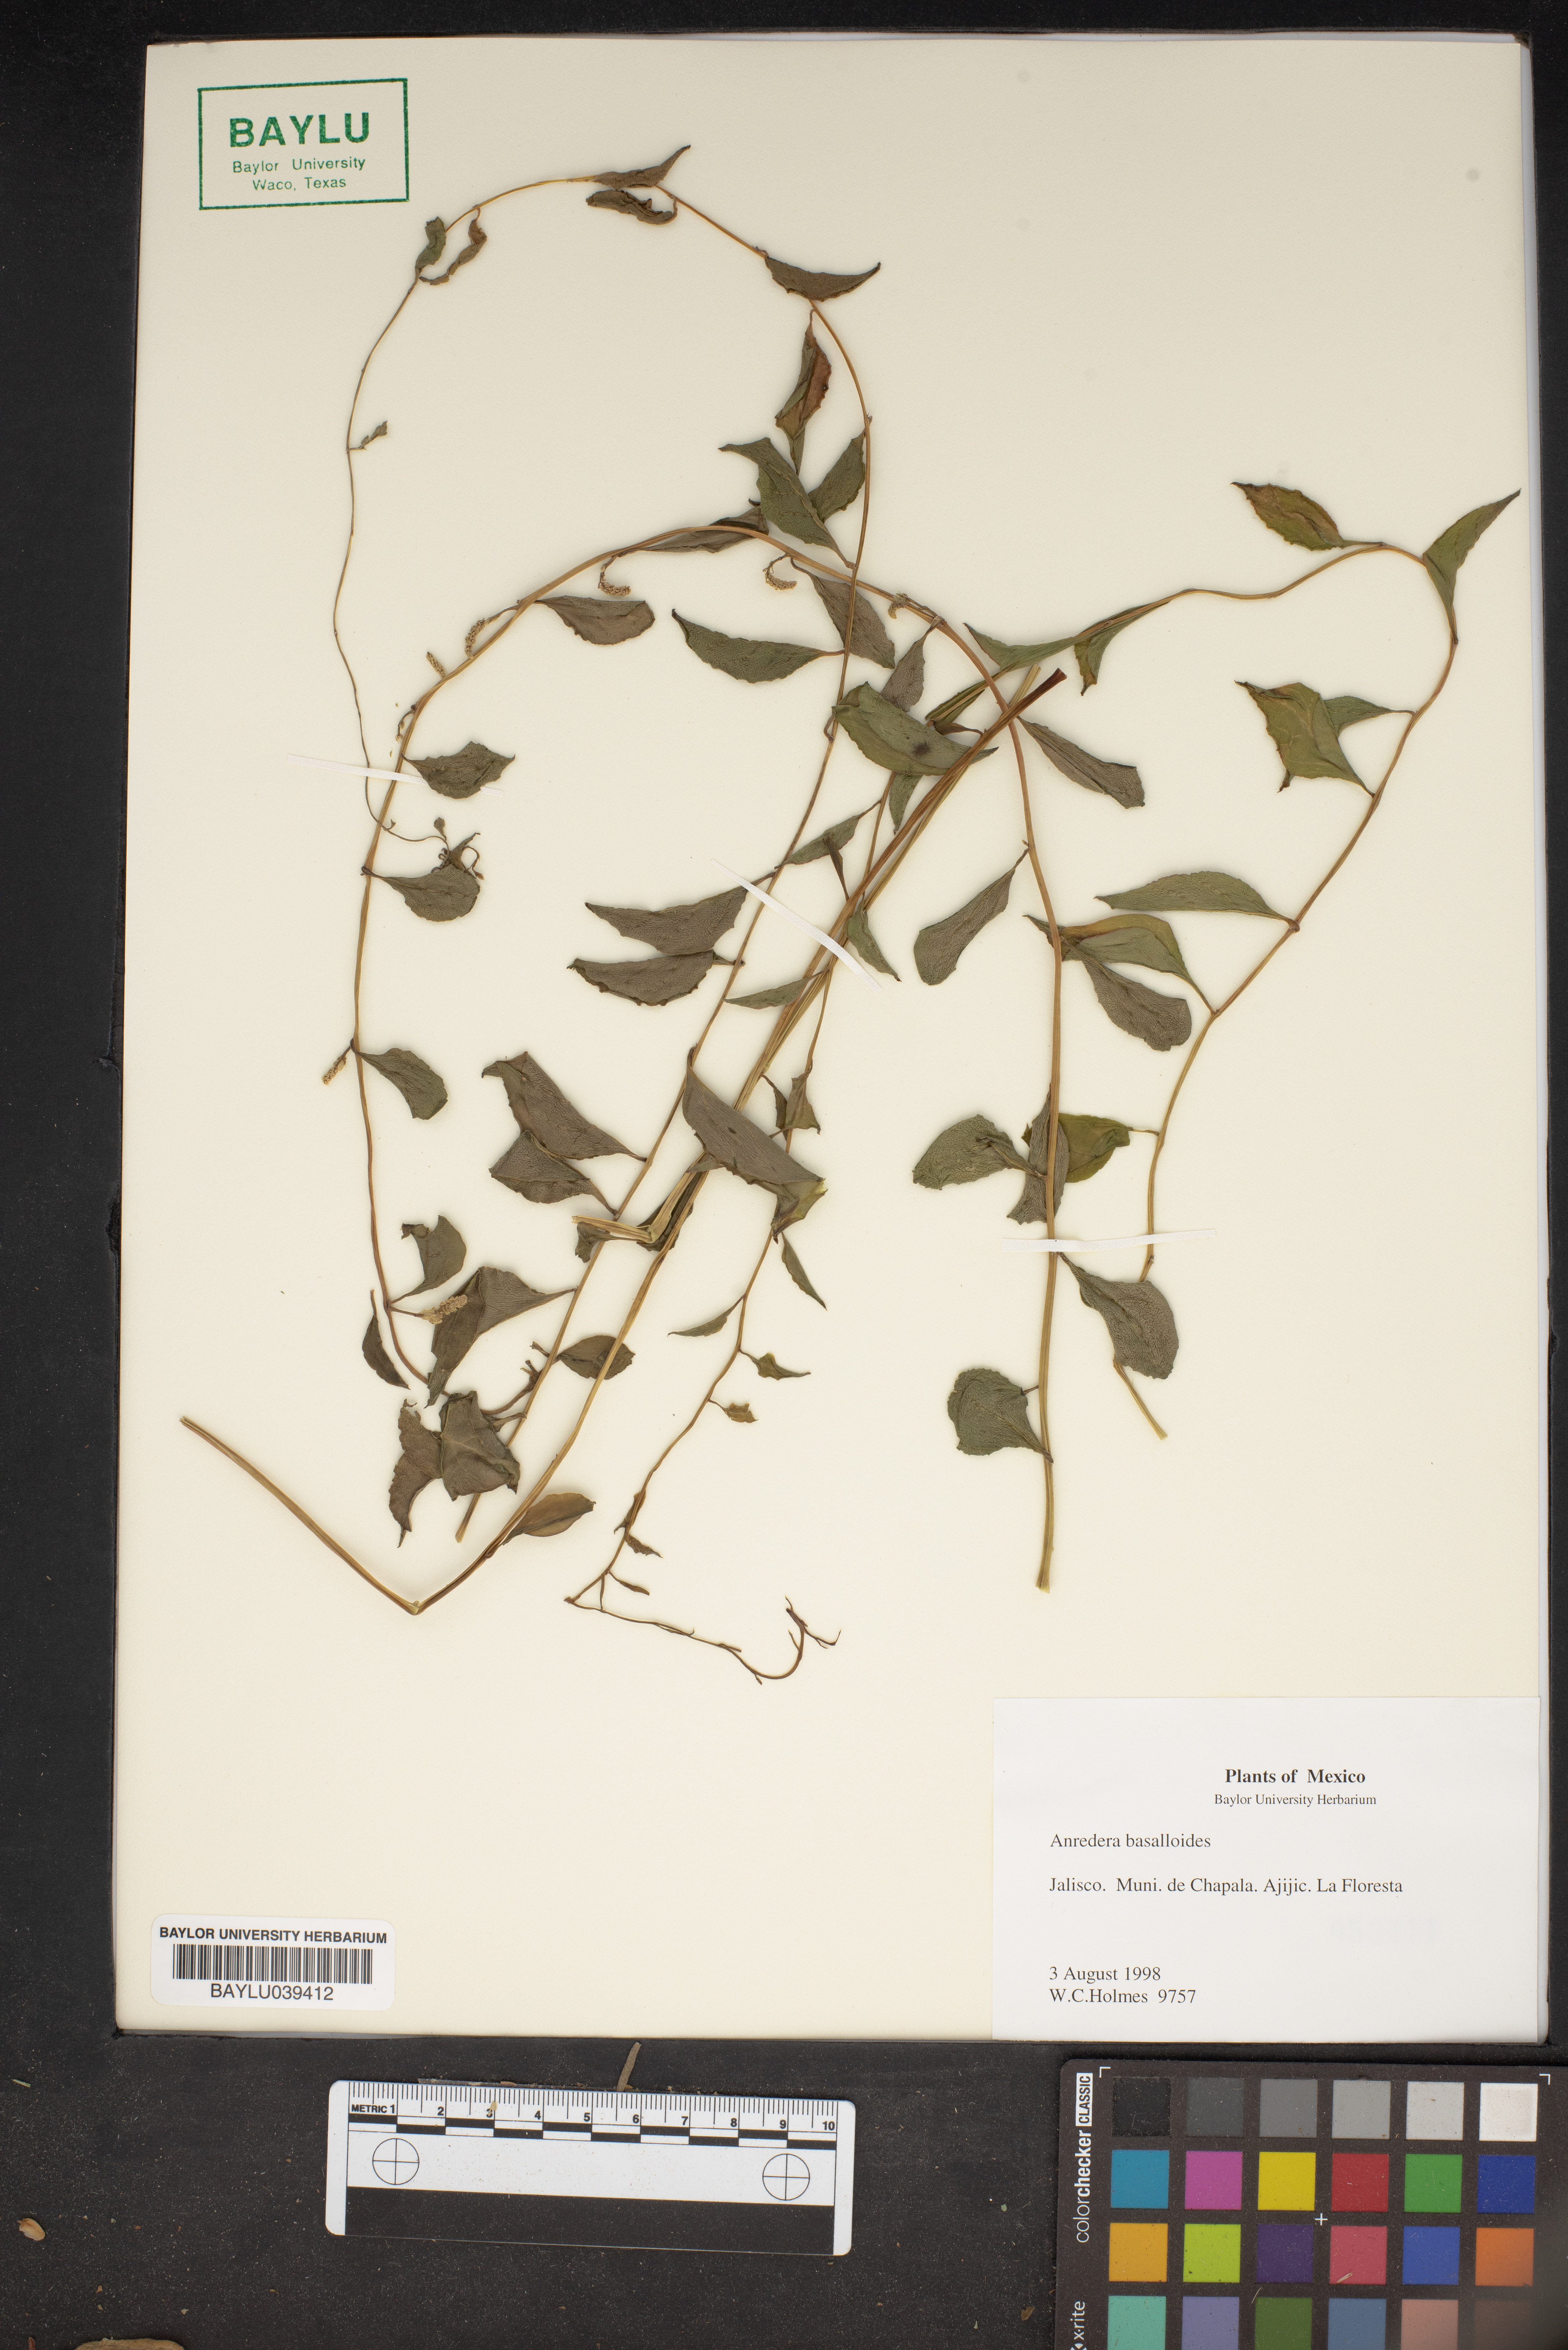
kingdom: Plantae
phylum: Tracheophyta
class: Magnoliopsida
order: Caryophyllales
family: Basellaceae
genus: Anredera
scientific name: Anredera baselloides
